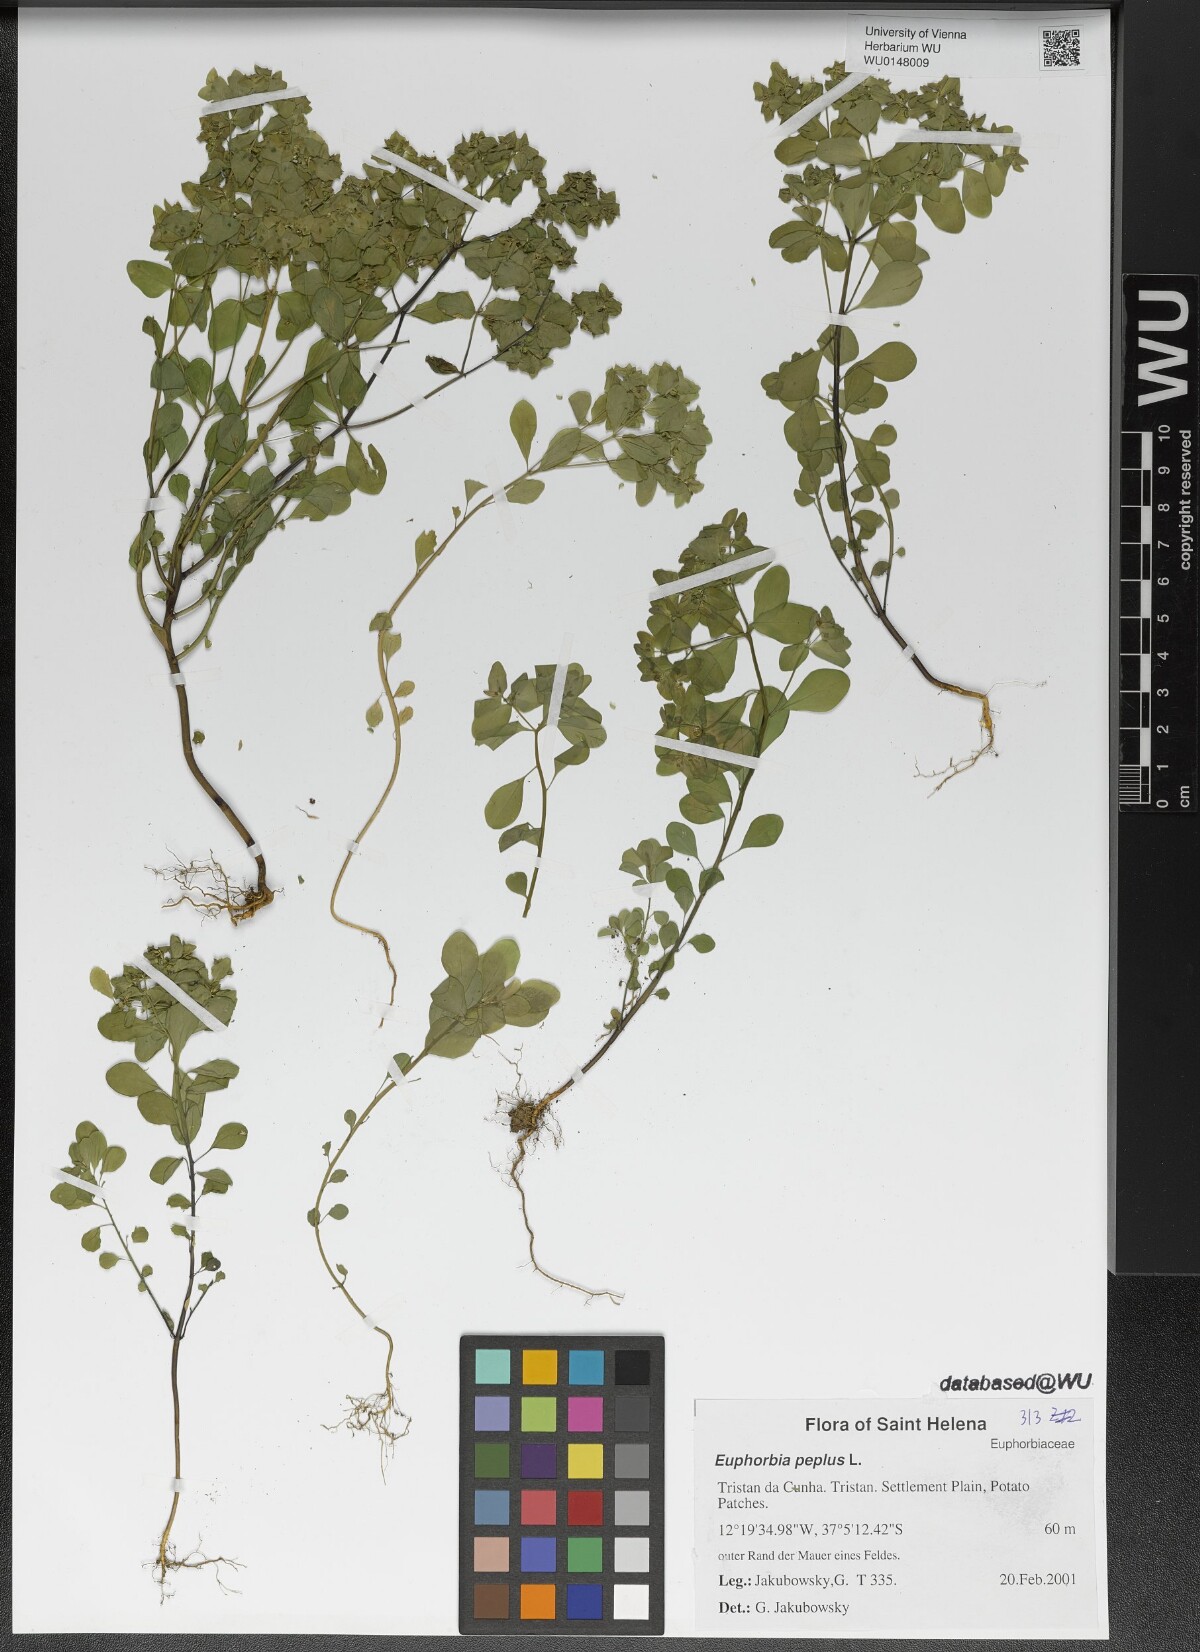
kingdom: Plantae
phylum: Tracheophyta
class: Magnoliopsida
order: Malpighiales
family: Euphorbiaceae
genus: Euphorbia
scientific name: Euphorbia peplus
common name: Petty spurge
